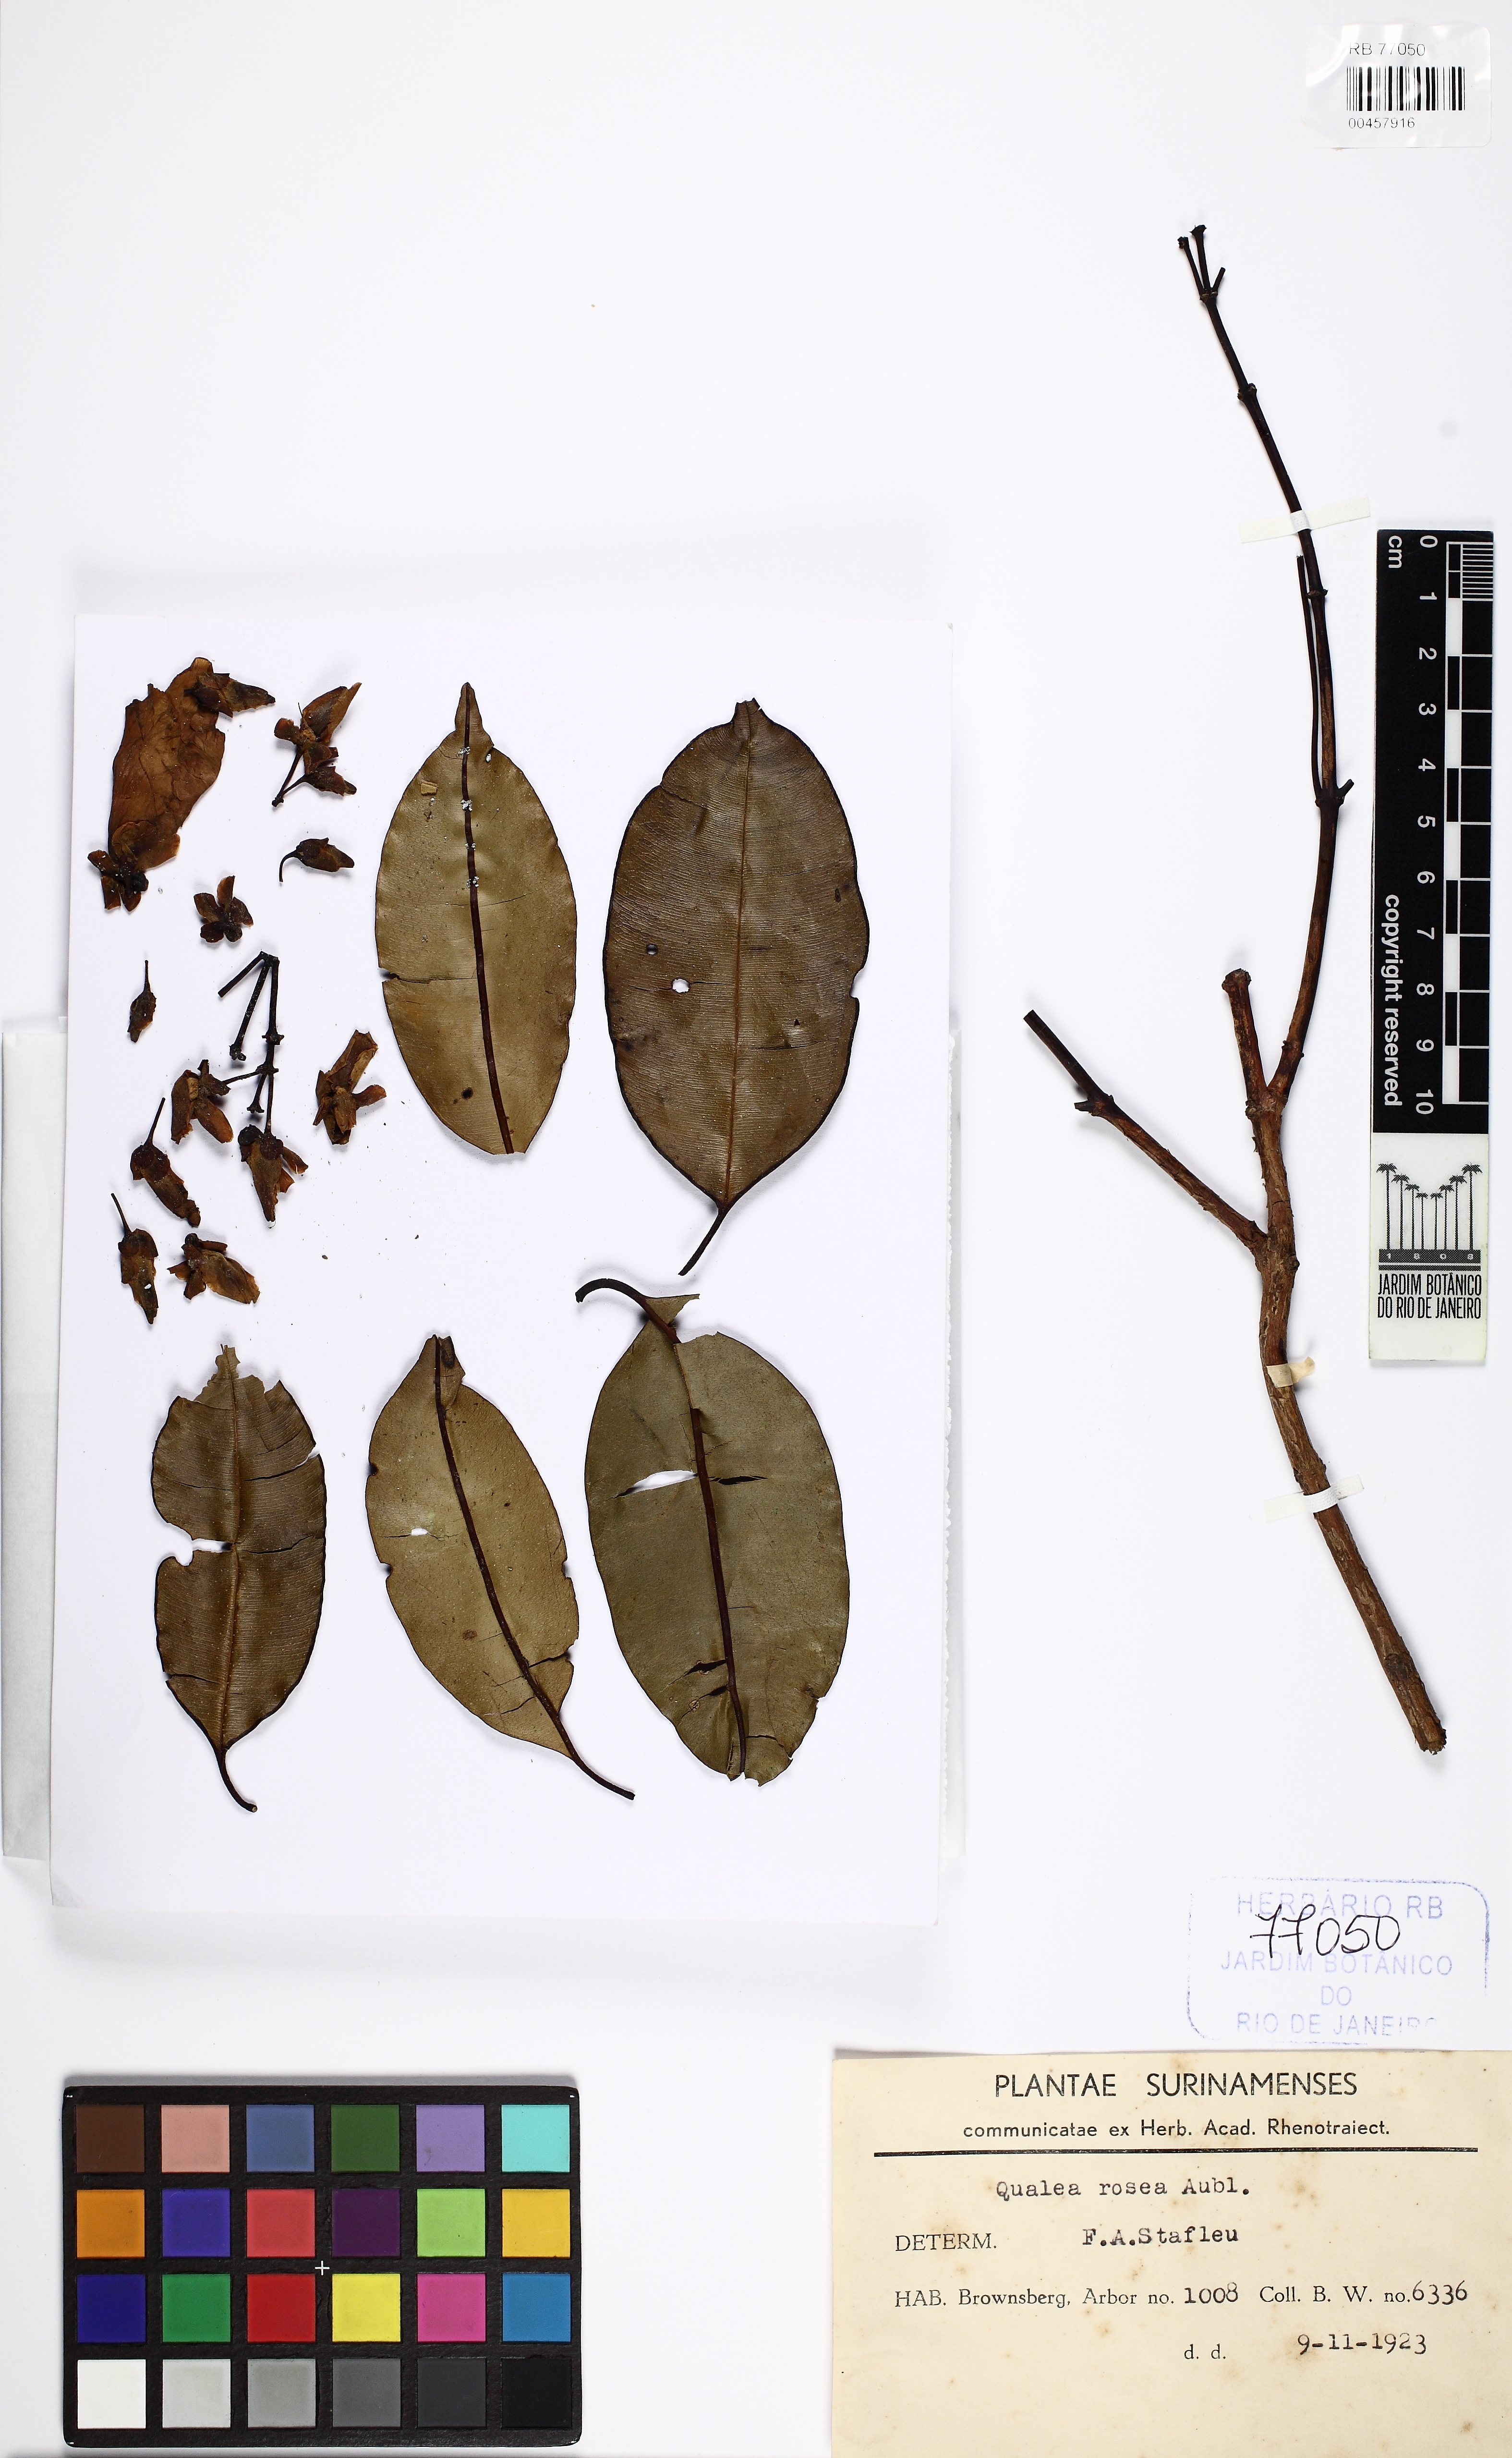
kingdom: Plantae
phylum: Tracheophyta
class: Magnoliopsida
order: Myrtales
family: Vochysiaceae
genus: Qualea
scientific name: Qualea rosea
